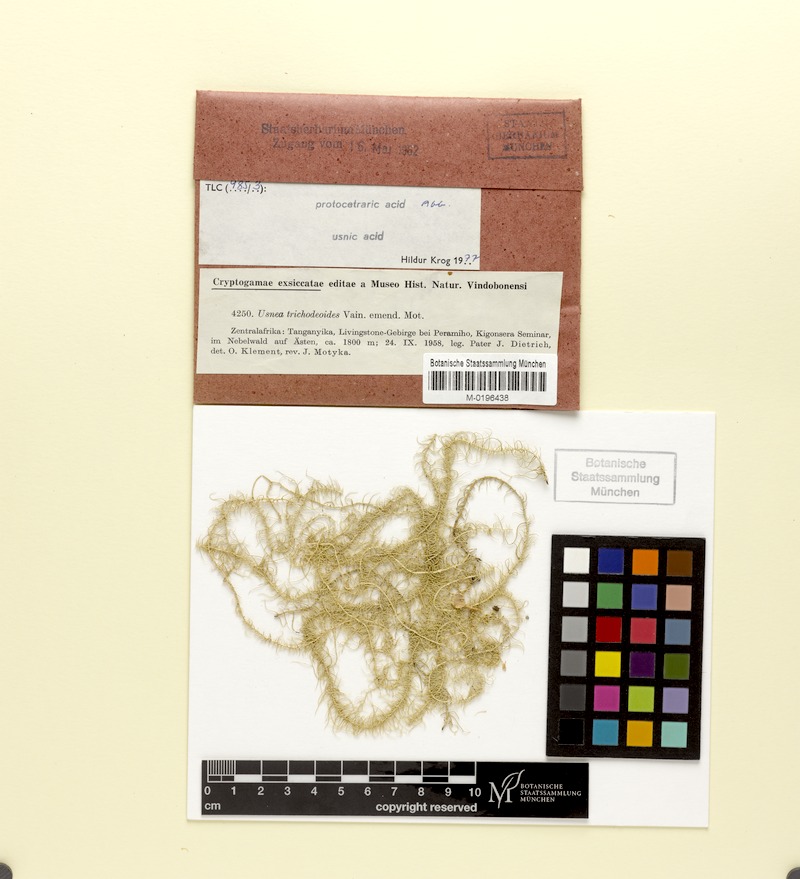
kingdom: Fungi
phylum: Ascomycota
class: Lecanoromycetes
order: Lecanorales
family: Parmeliaceae
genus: Dolichousnea
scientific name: Dolichousnea trichodeoides
